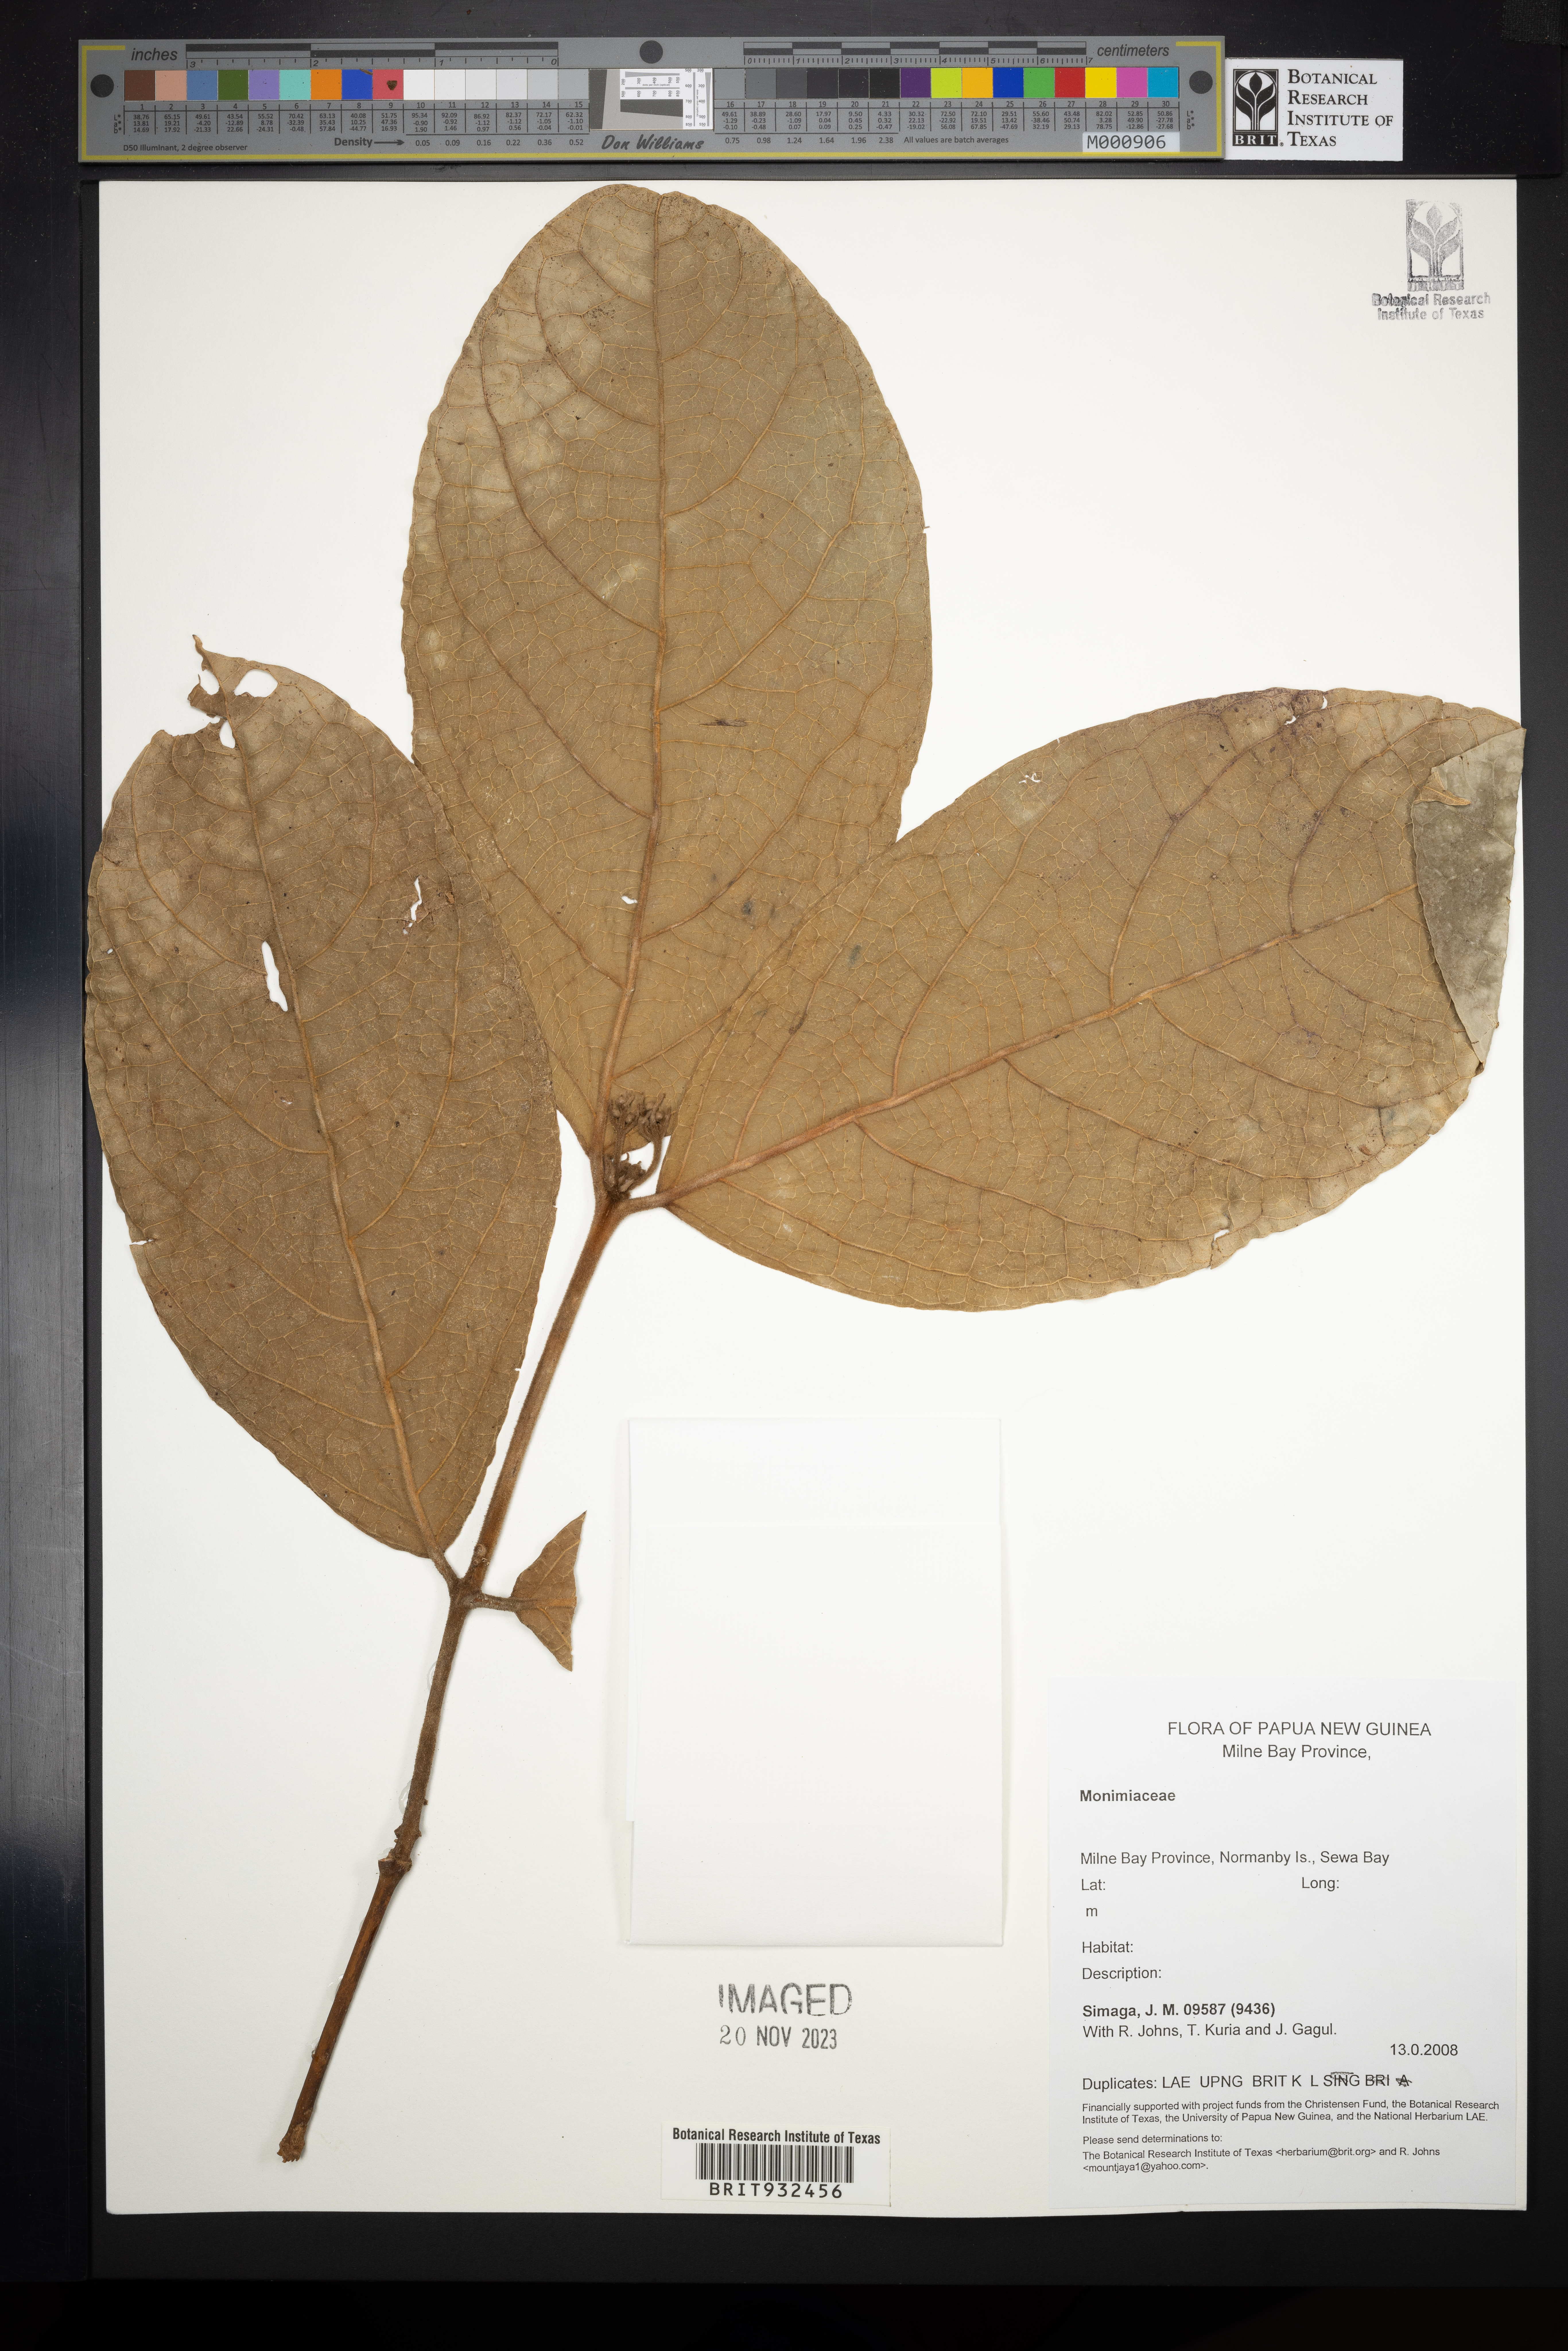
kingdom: Plantae
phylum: Tracheophyta
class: Magnoliopsida
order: Laurales
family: Monimiaceae
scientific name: Monimiaceae
